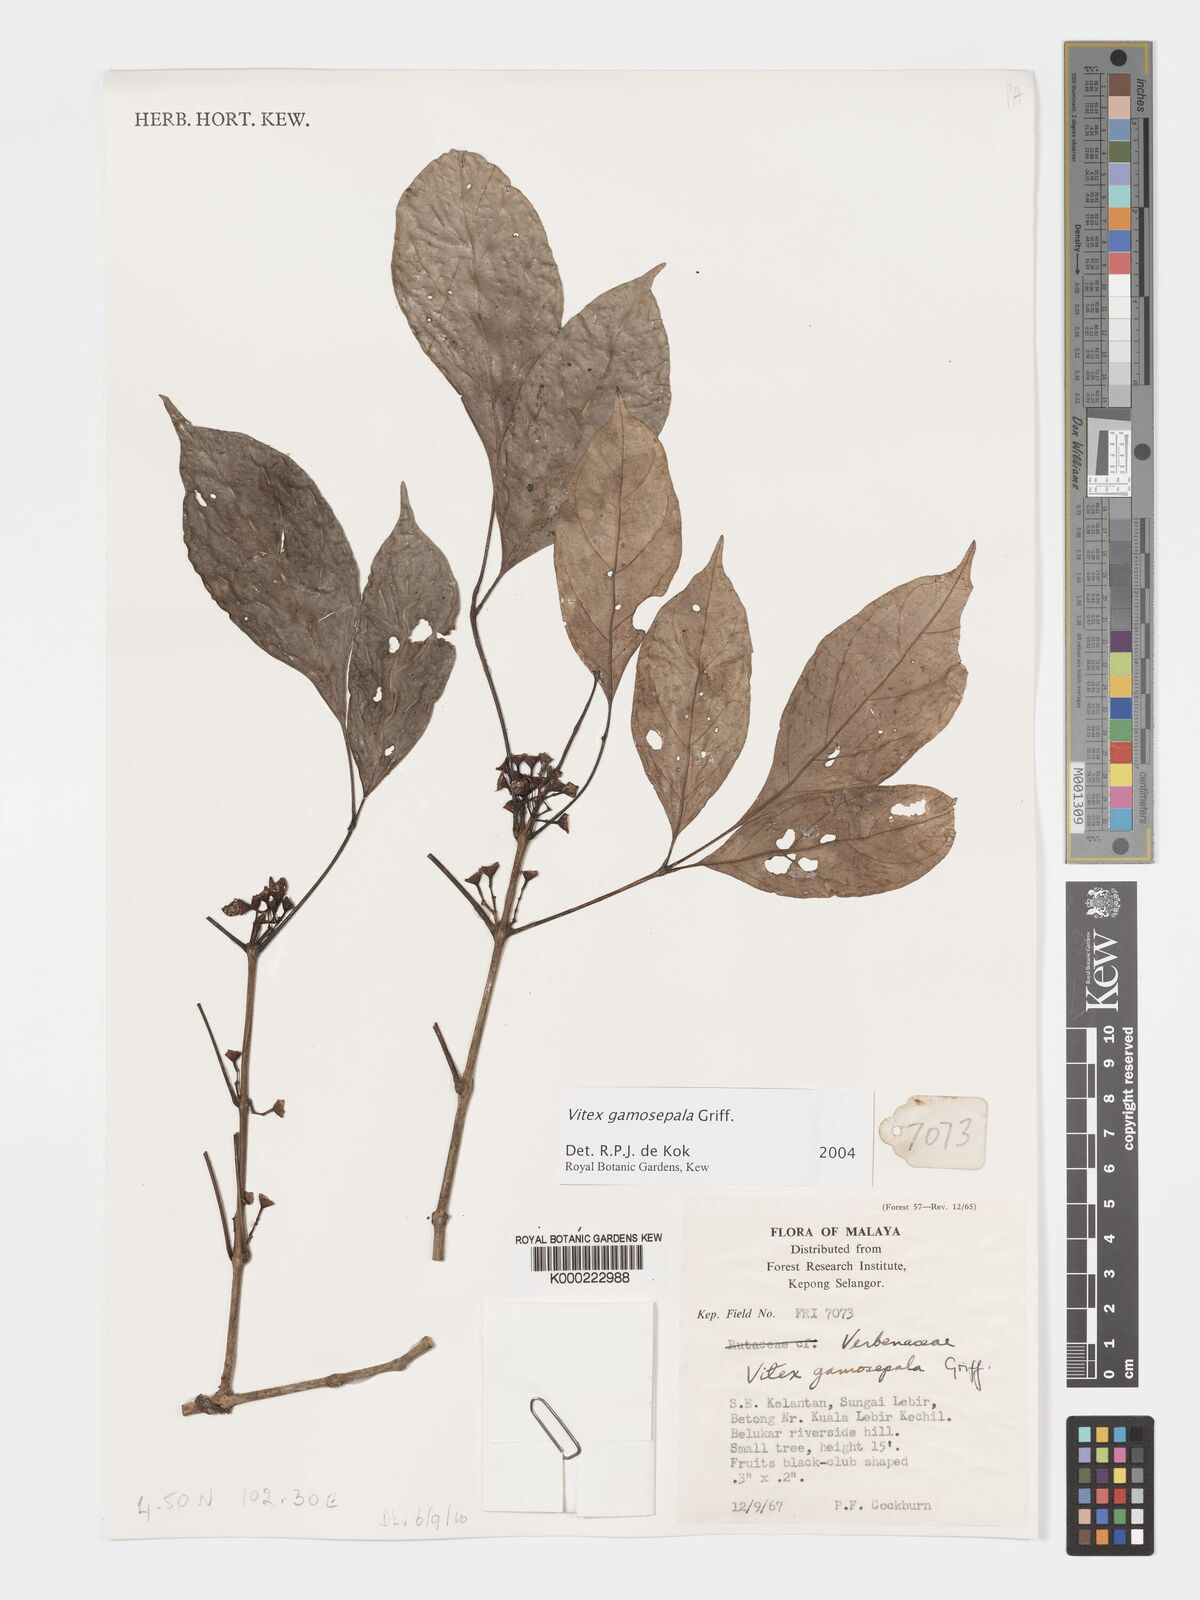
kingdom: Plantae
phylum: Tracheophyta
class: Magnoliopsida
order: Lamiales
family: Lamiaceae
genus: Vitex
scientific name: Vitex gamosepala
